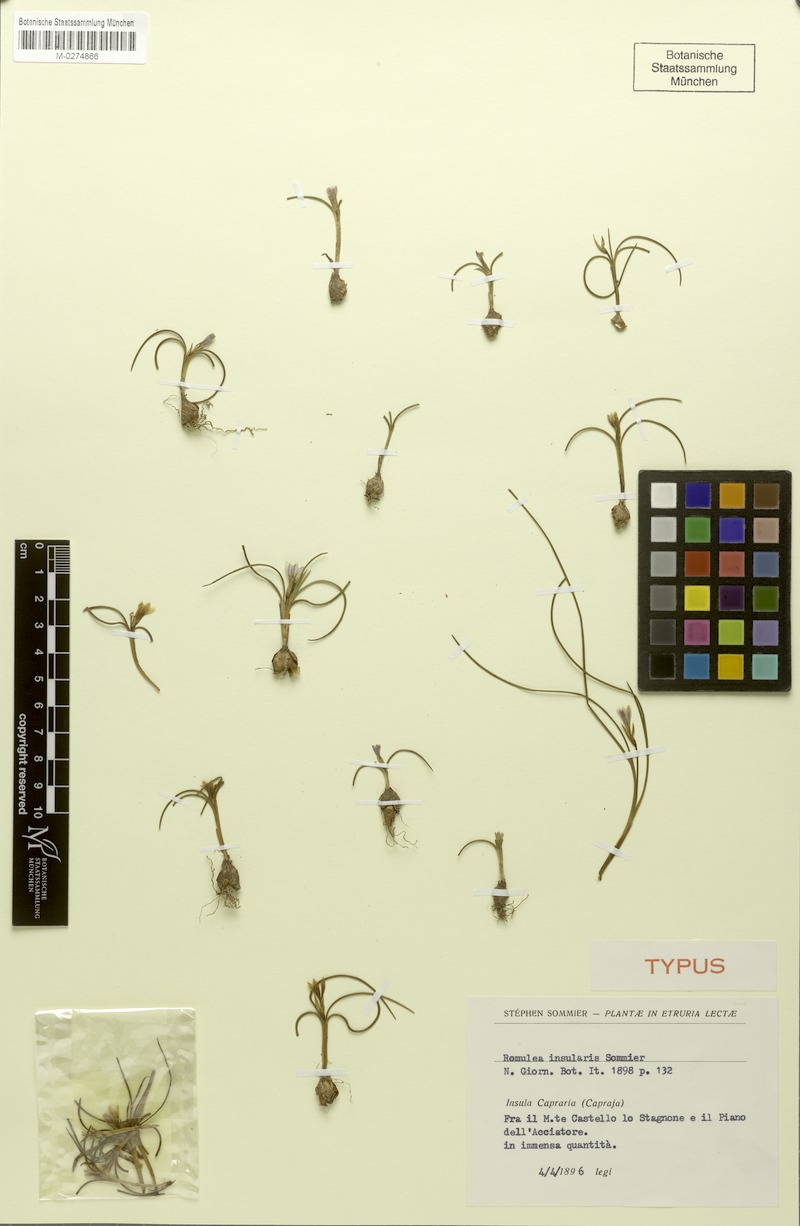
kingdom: Plantae
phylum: Tracheophyta
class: Liliopsida
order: Asparagales
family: Iridaceae
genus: Romulea
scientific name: Romulea revelierei
